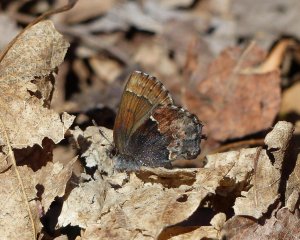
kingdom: Animalia
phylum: Arthropoda
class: Insecta
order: Lepidoptera
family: Lycaenidae
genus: Incisalia
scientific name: Incisalia henrici
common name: Henry's Elfin
